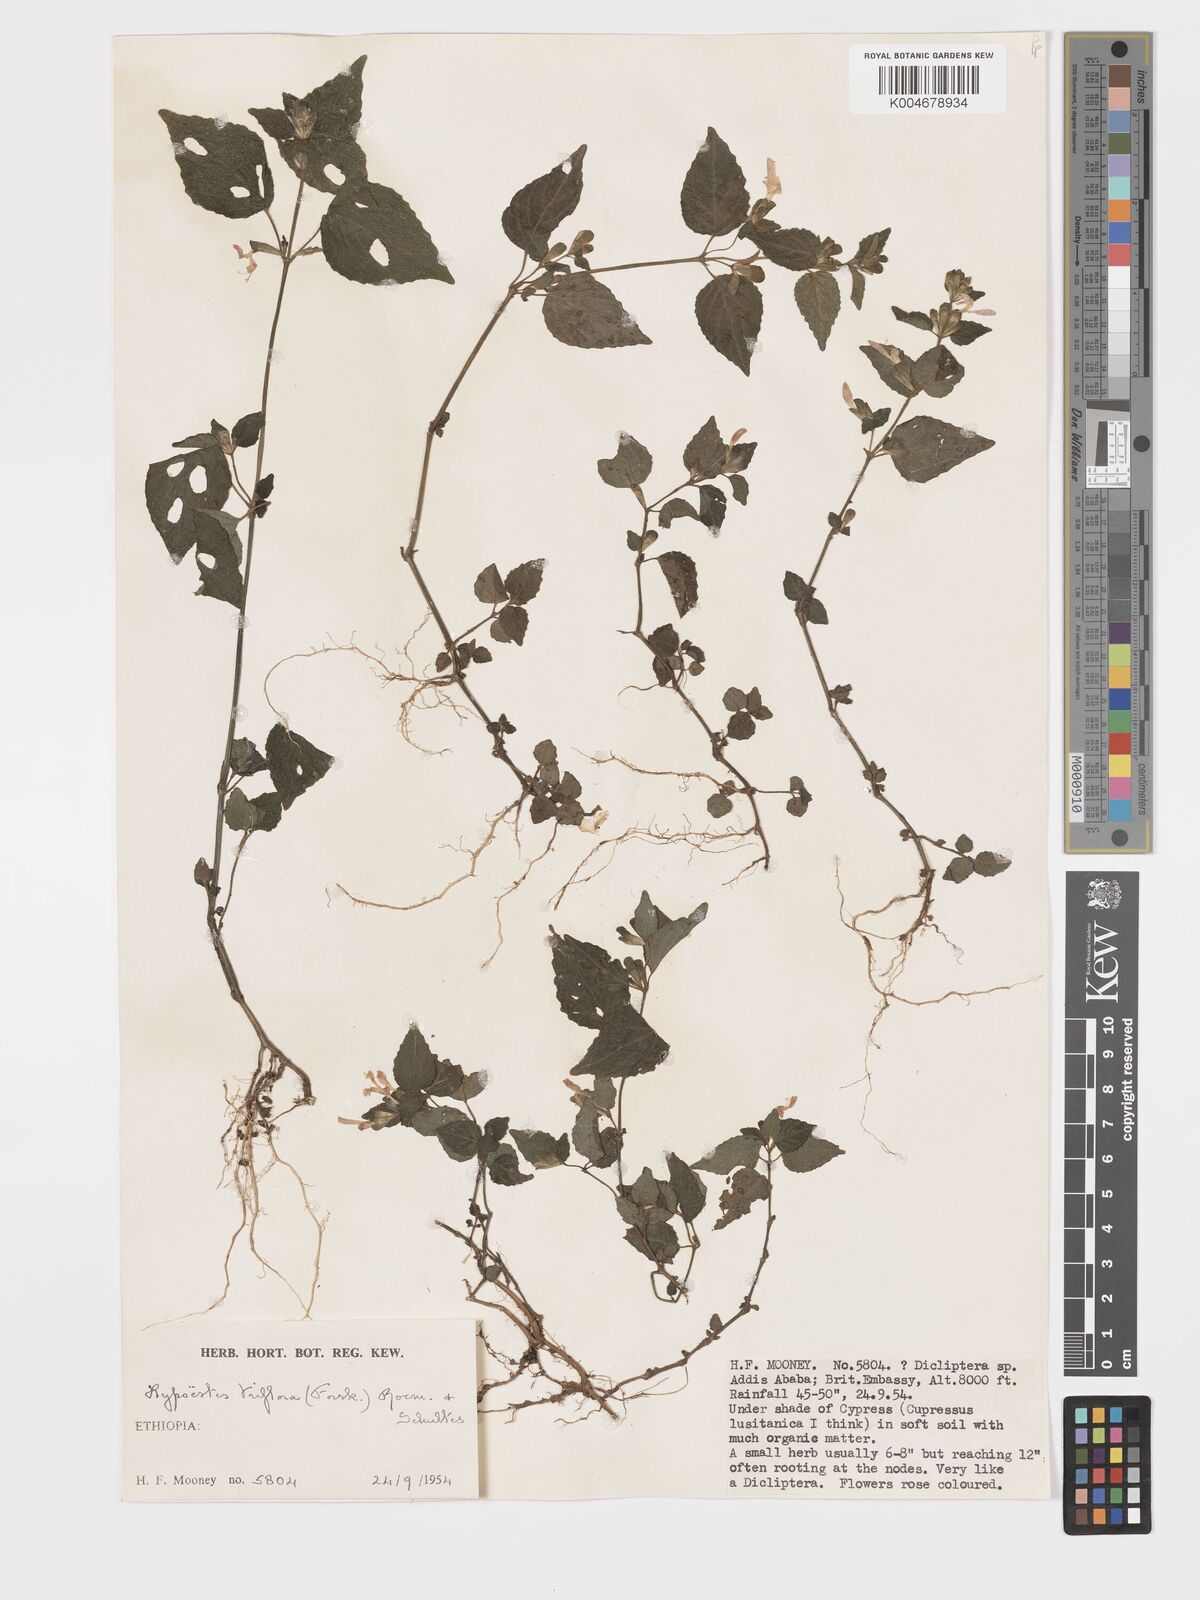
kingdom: Plantae
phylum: Tracheophyta
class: Magnoliopsida
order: Lamiales
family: Acanthaceae
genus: Hypoestes
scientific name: Hypoestes triflora
